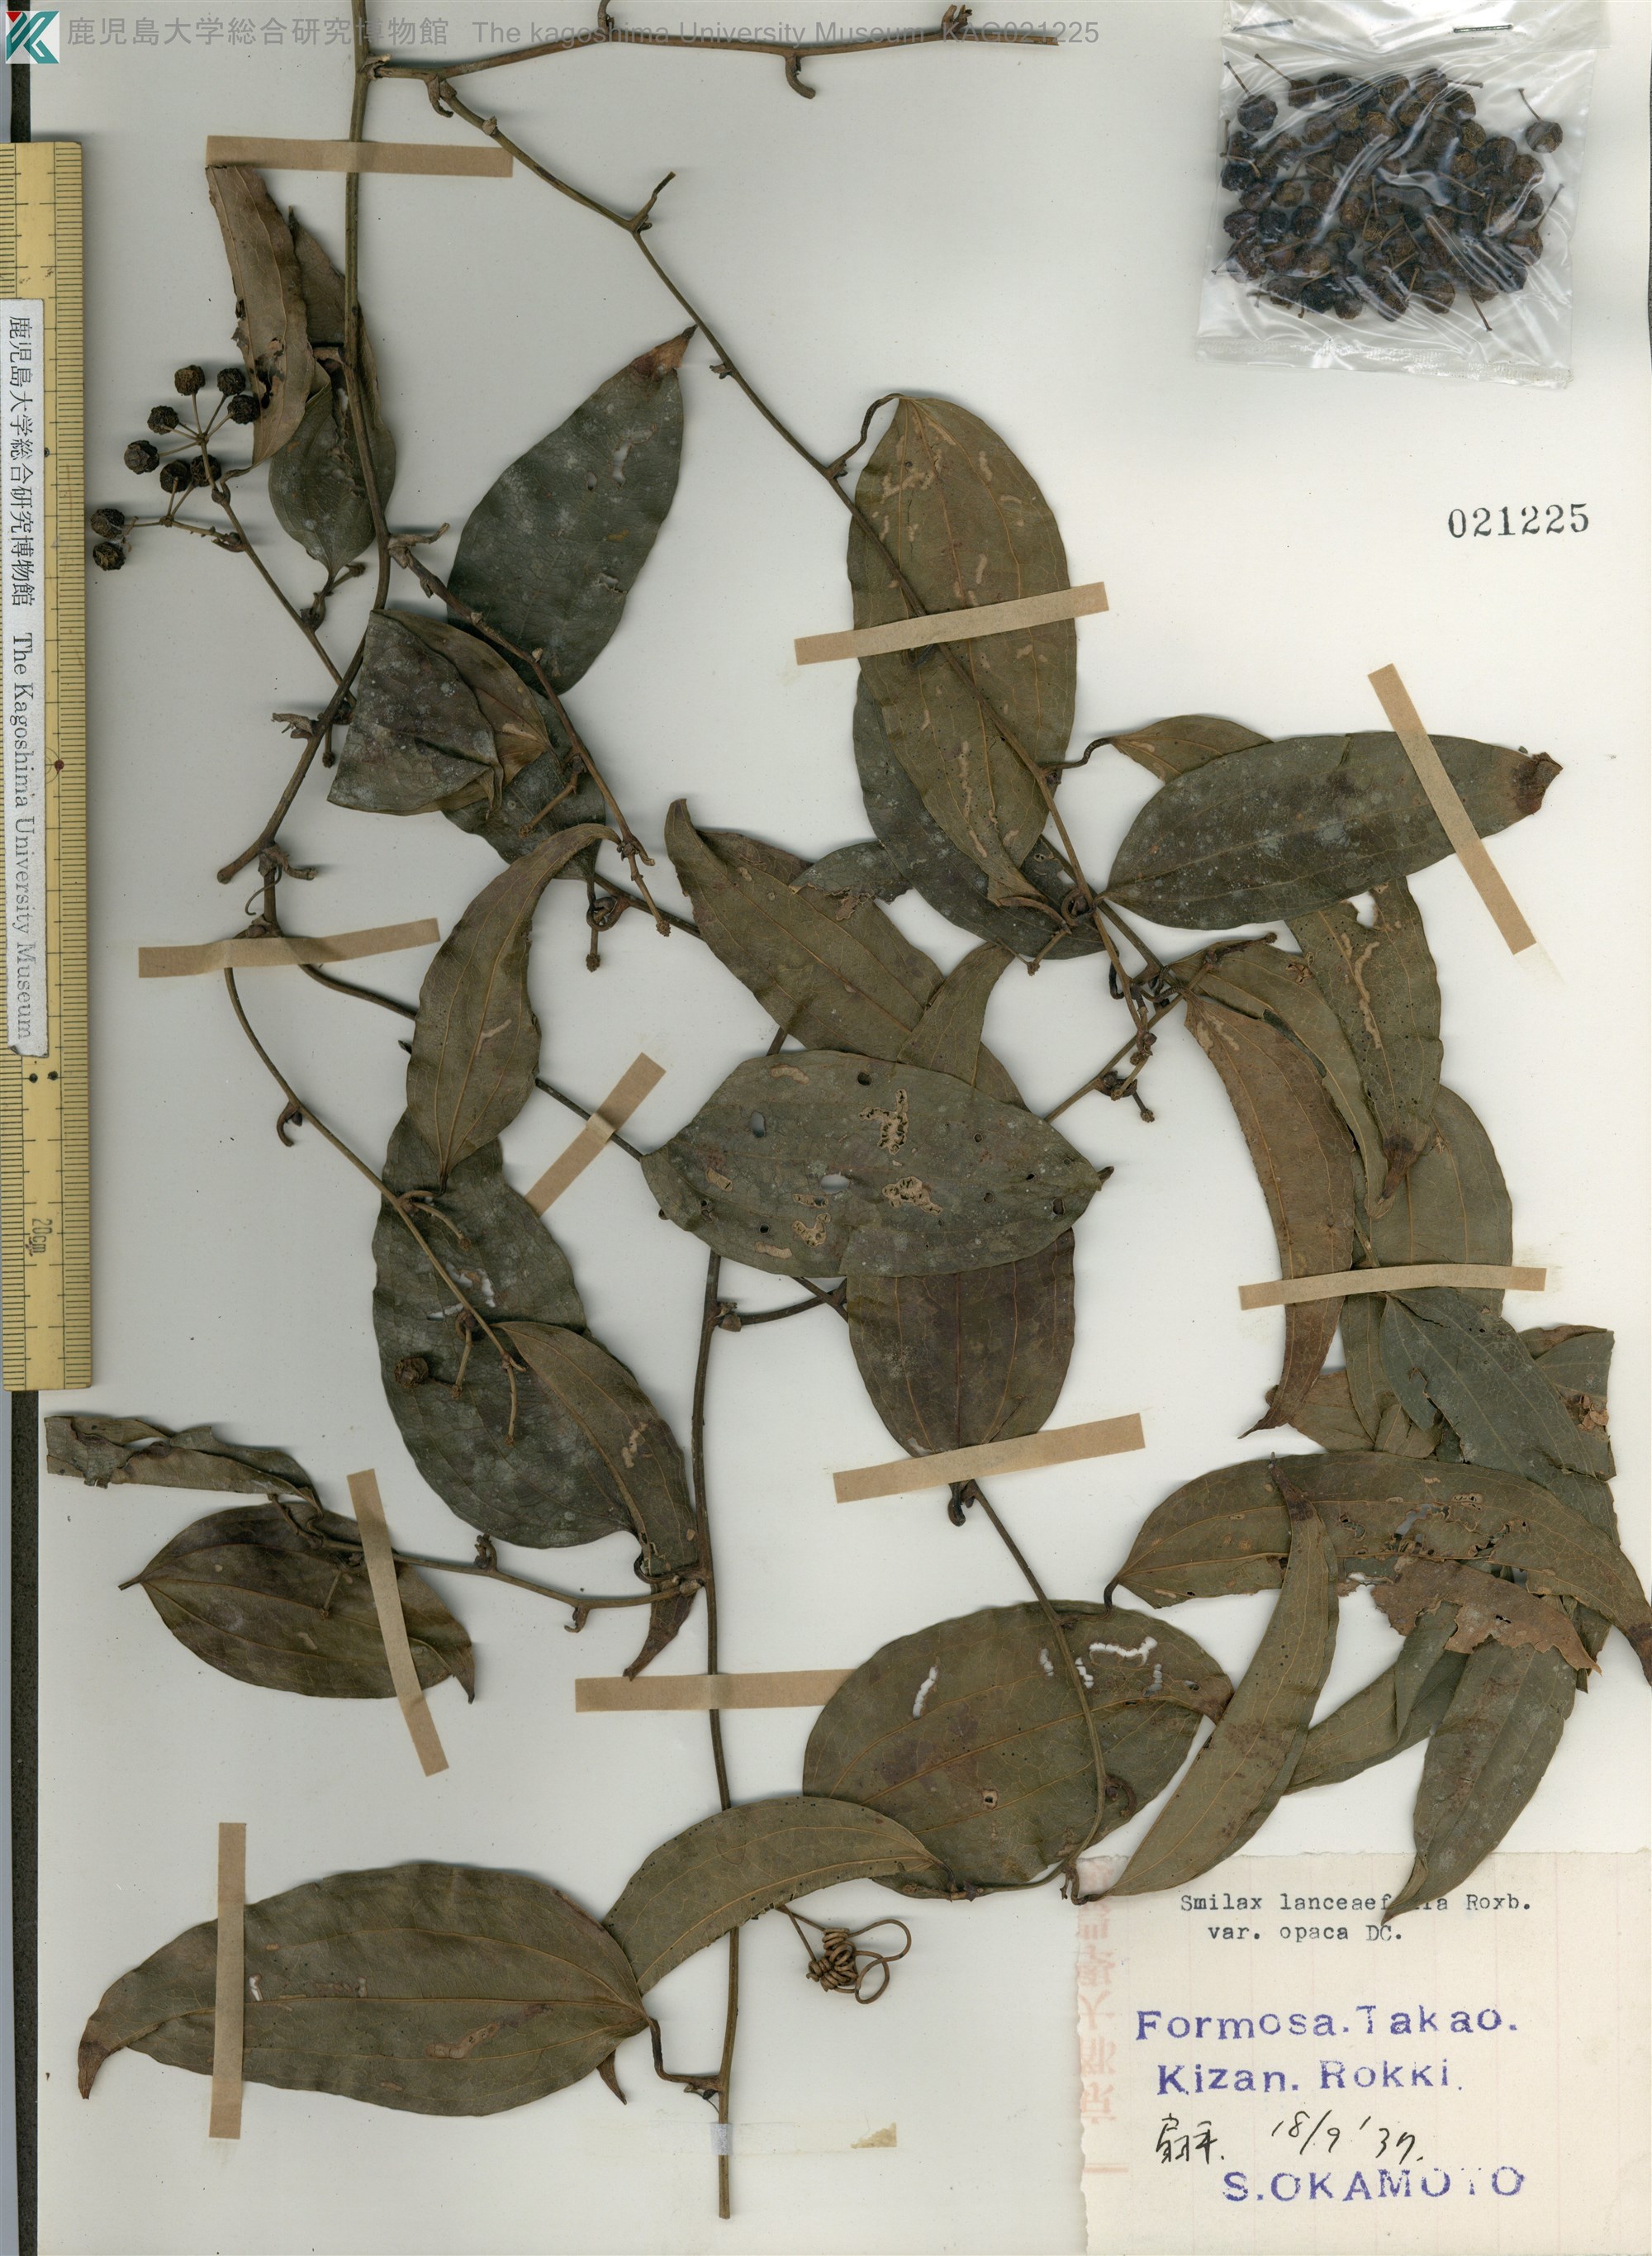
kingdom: Plantae
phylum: Tracheophyta
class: Liliopsida
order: Liliales
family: Smilacaceae
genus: Smilax
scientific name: Smilax laevis
